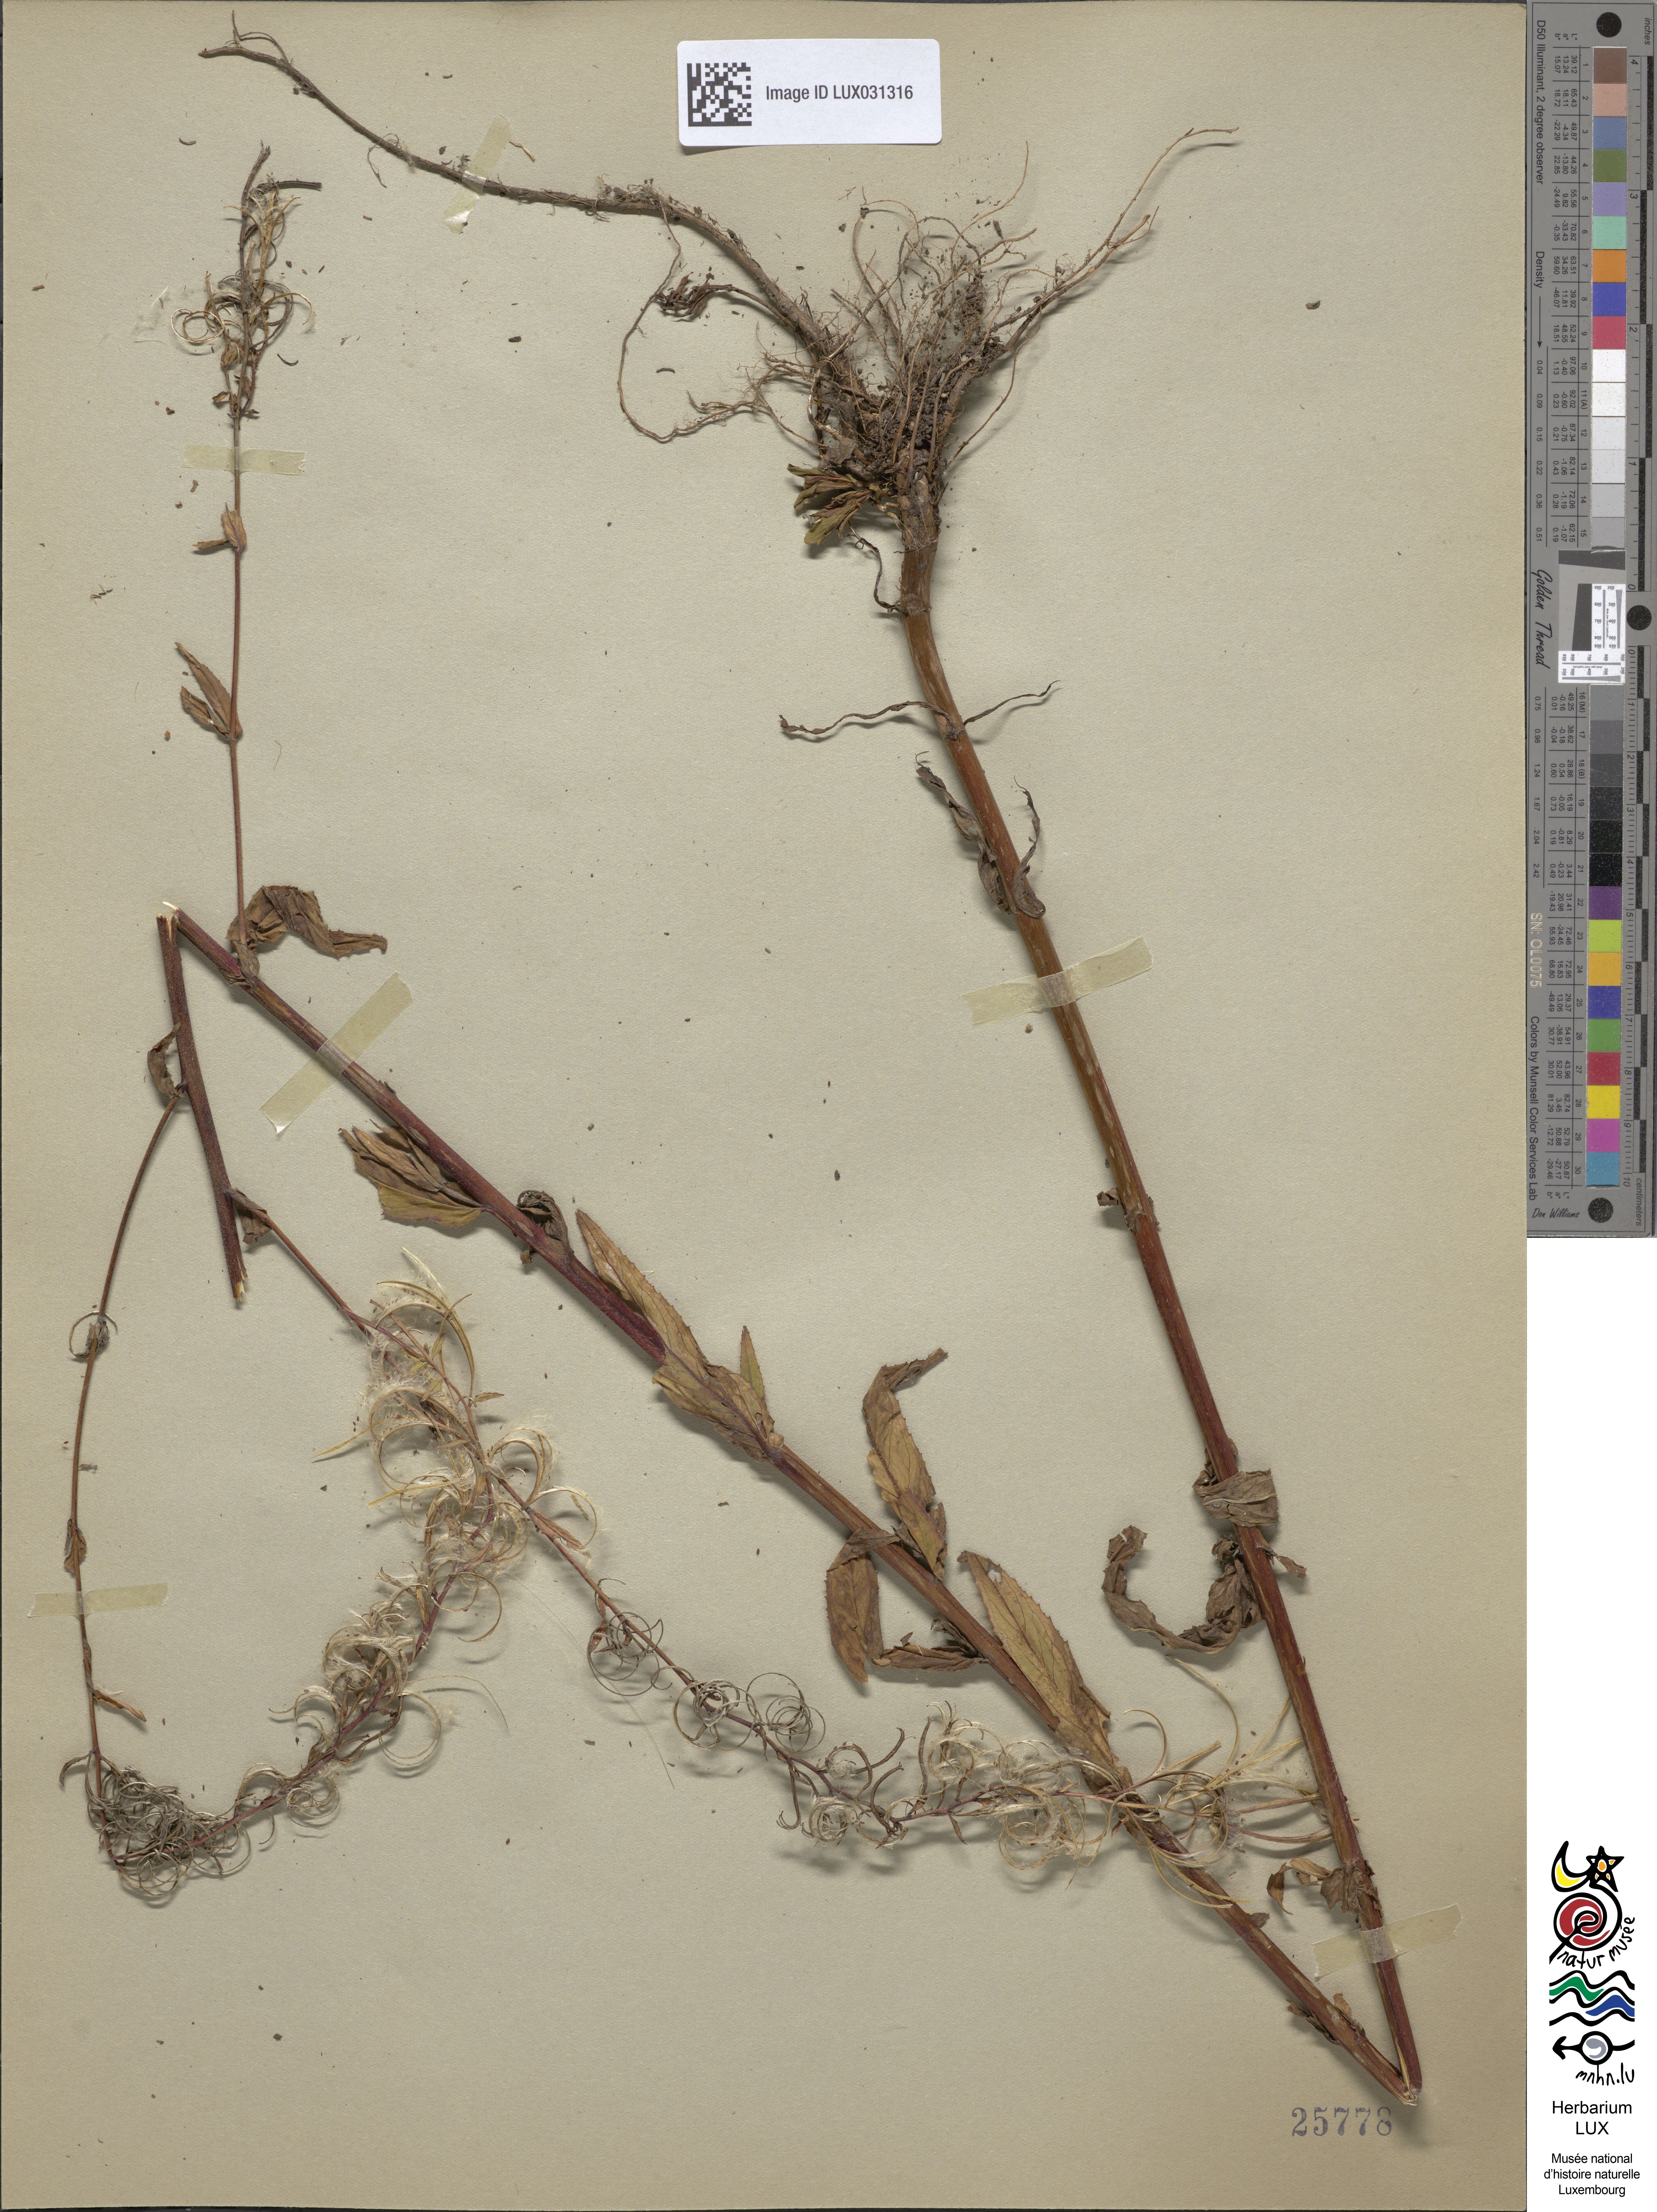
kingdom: Plantae
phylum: Tracheophyta
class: Magnoliopsida
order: Myrtales
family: Onagraceae
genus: Epilobium
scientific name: Epilobium ciliatum
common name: American willowherb
